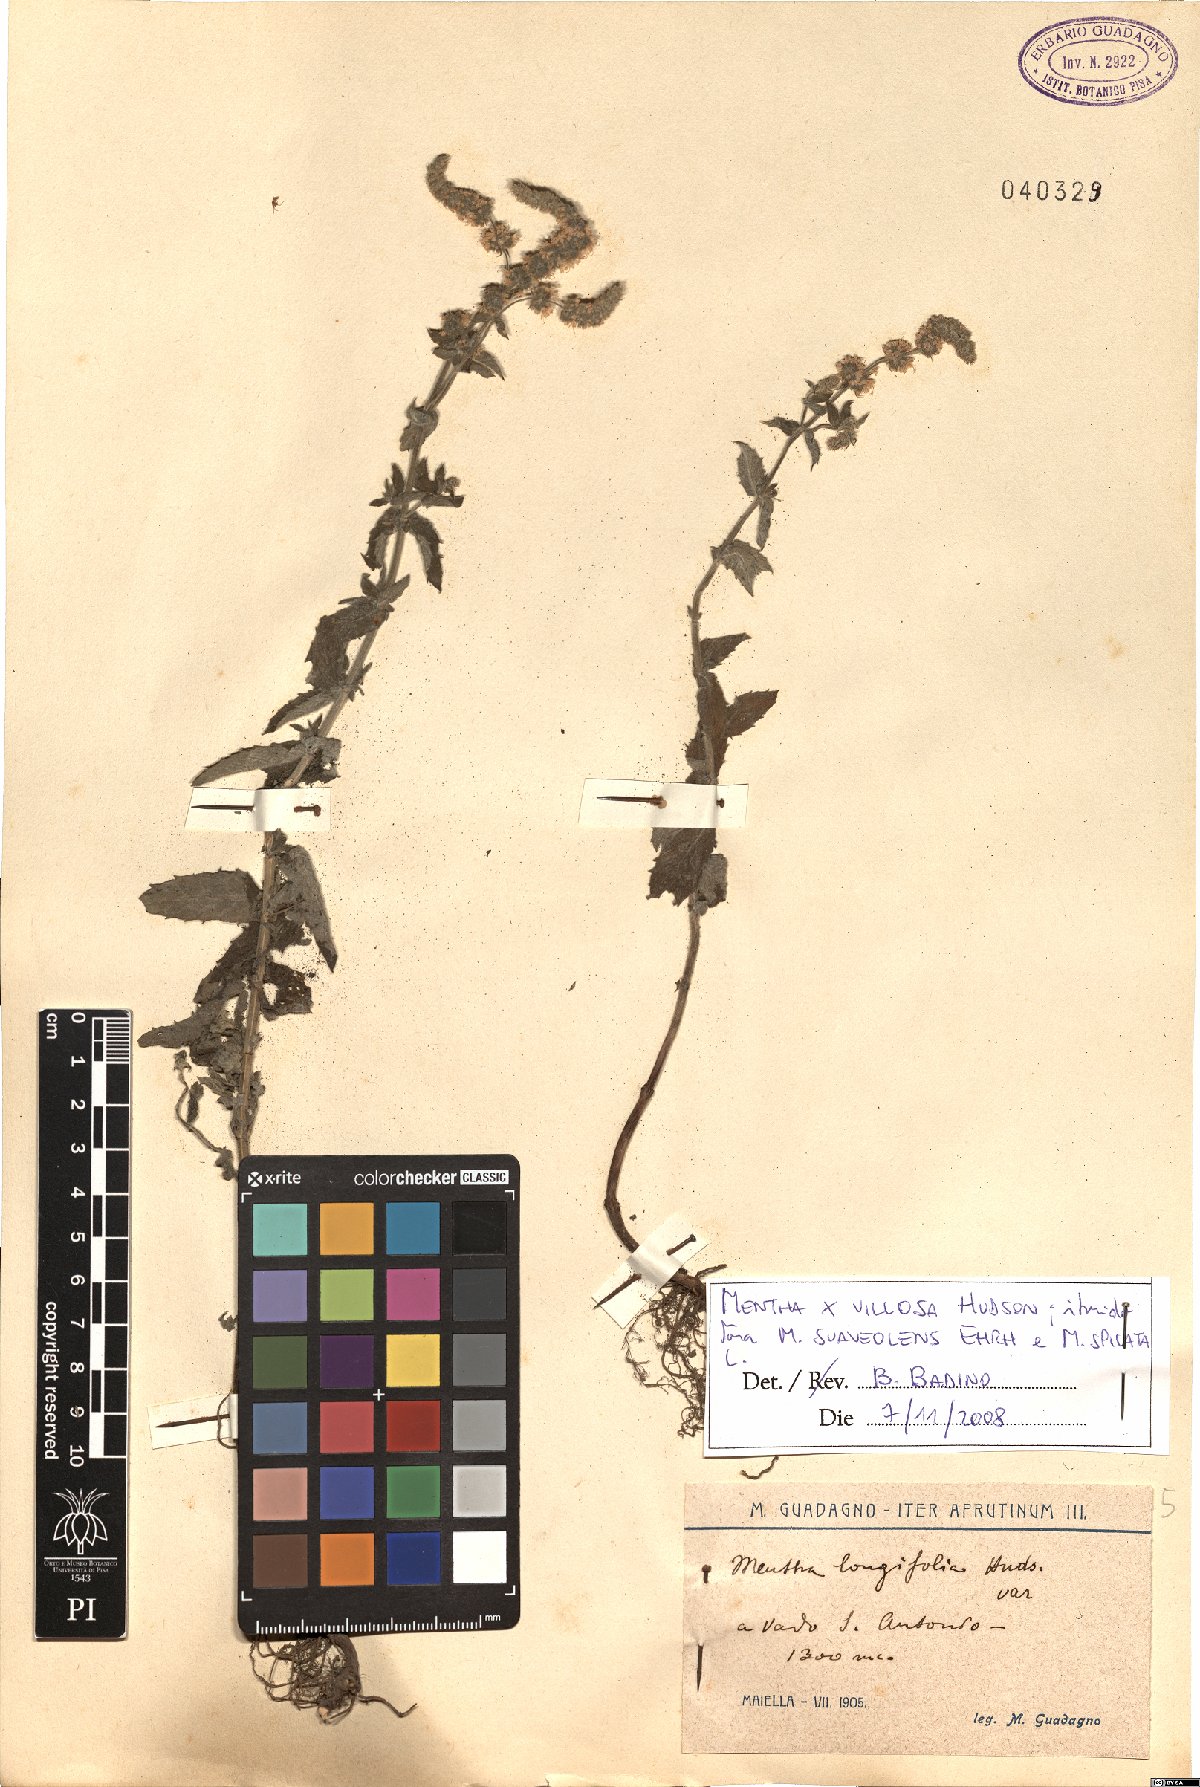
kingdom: Plantae
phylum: Tracheophyta
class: Magnoliopsida
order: Lamiales
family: Lamiaceae
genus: Mentha
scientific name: Mentha villosa
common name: Apple mint
